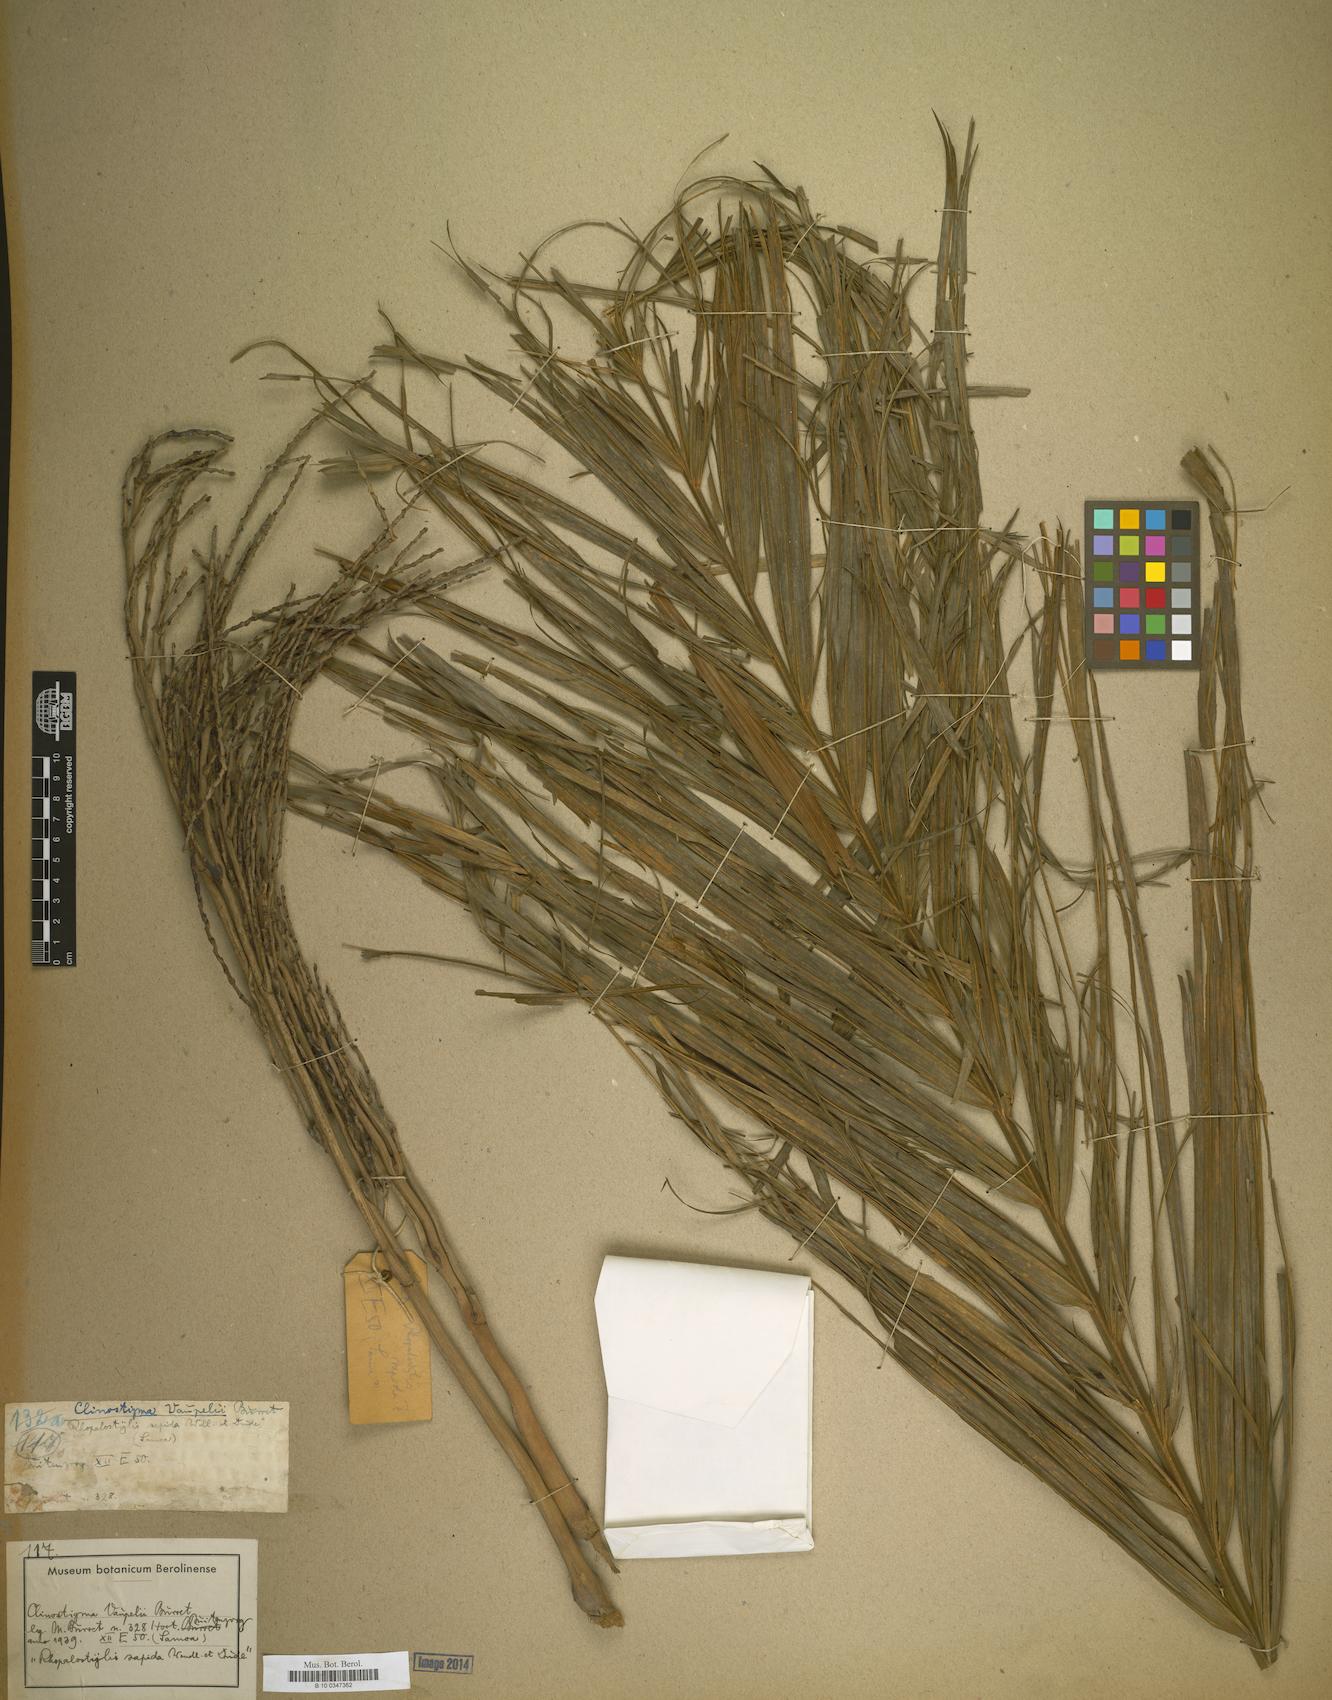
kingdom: Plantae
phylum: Tracheophyta
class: Liliopsida
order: Arecales
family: Arecaceae
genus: Clinostigma
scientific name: Clinostigma warburgii
